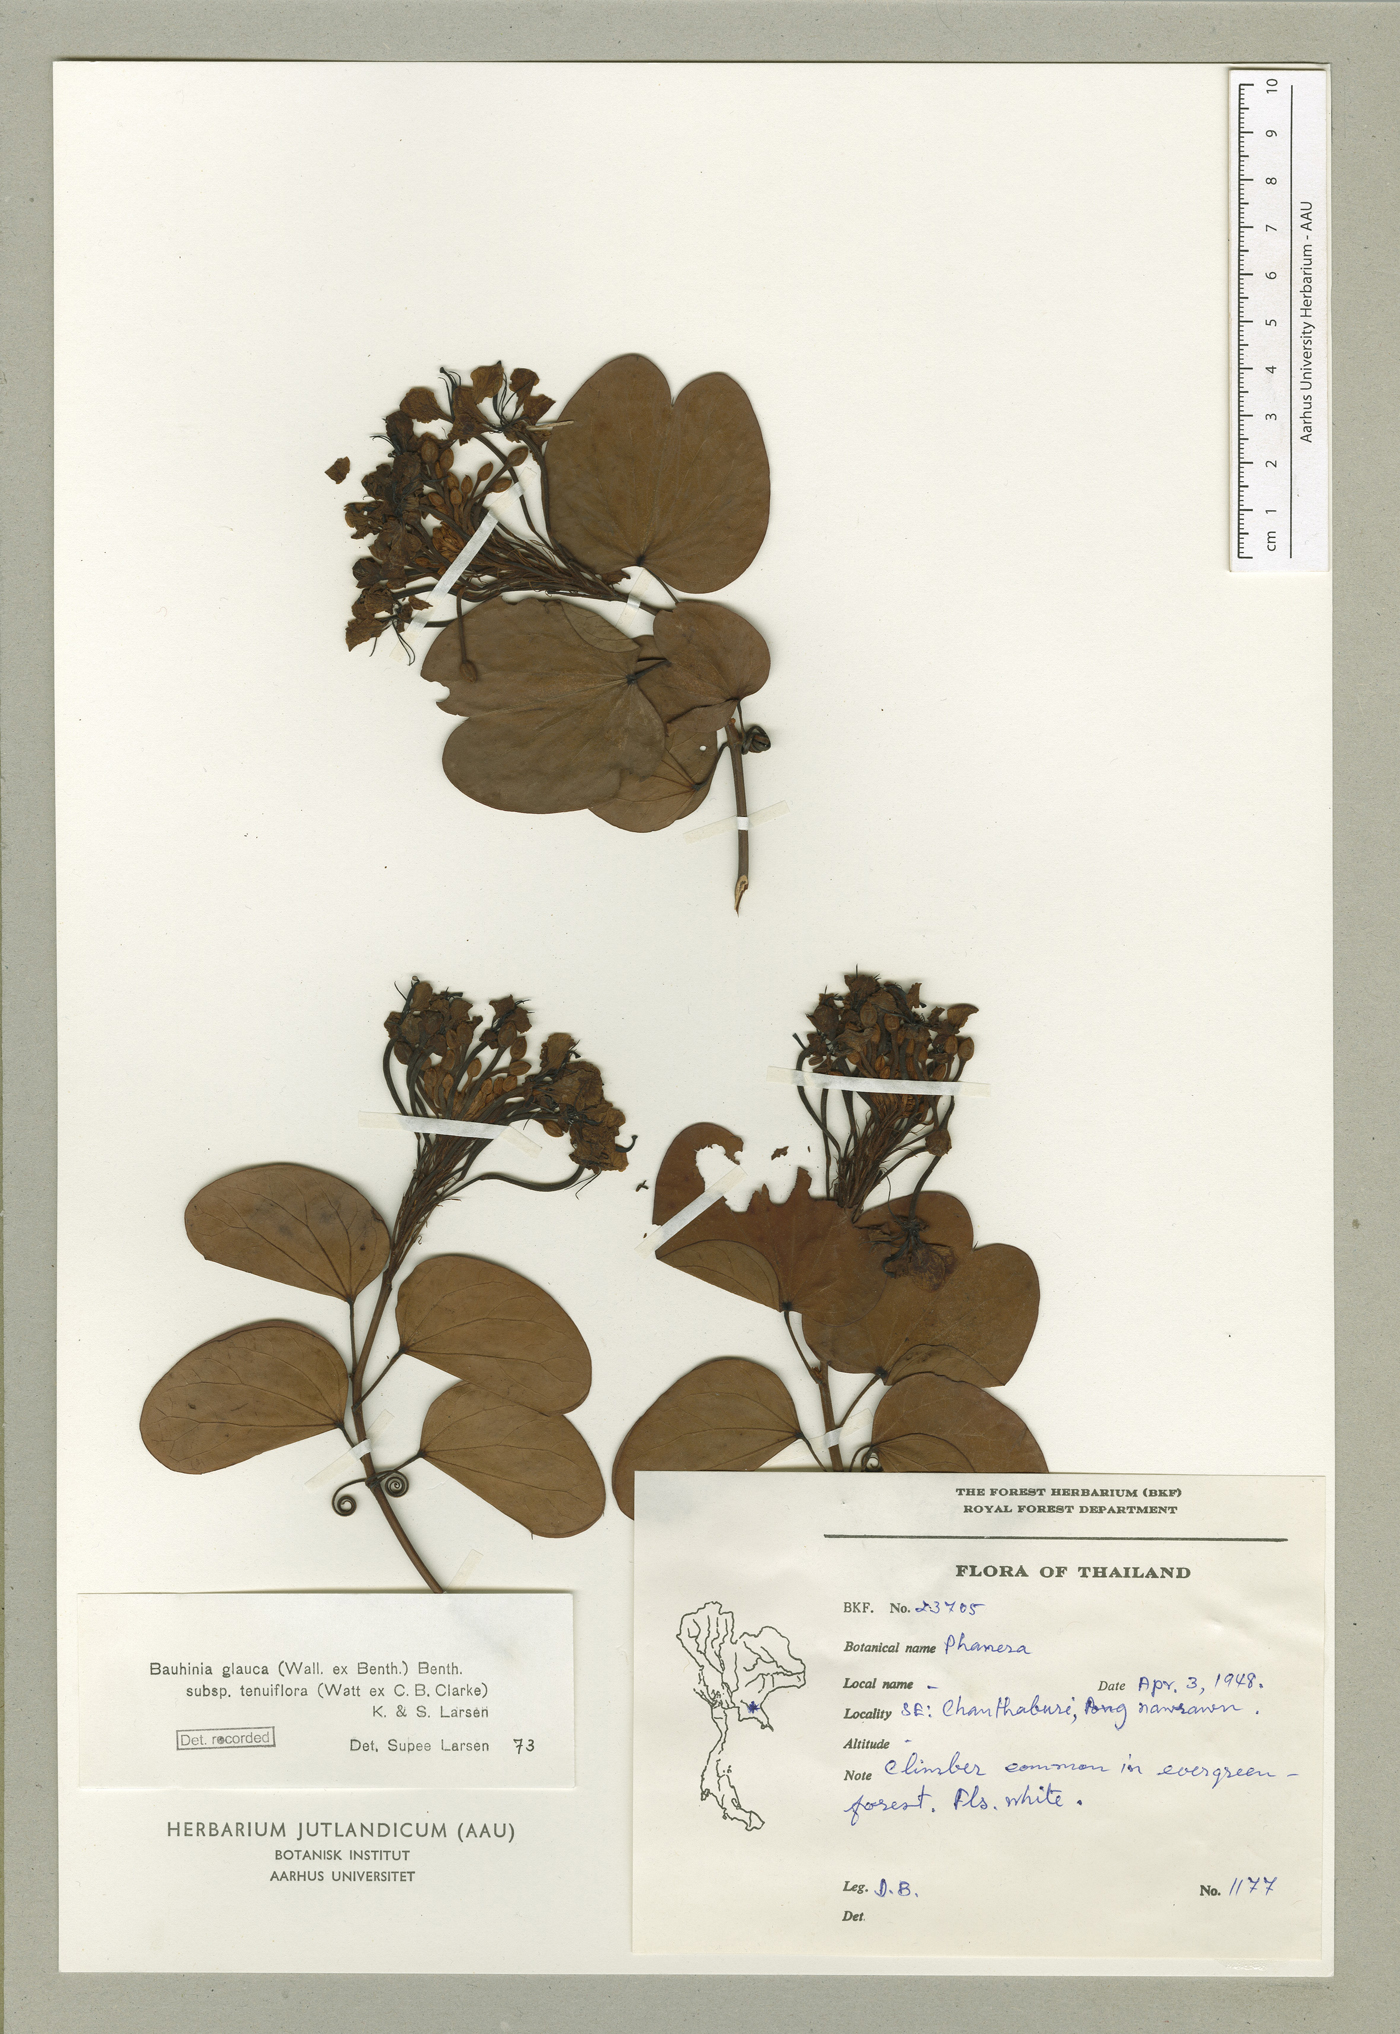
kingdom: Plantae
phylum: Tracheophyta
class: Magnoliopsida
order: Fabales
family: Fabaceae
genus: Cheniella
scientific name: Cheniella tenuiflora
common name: Bauhinia
